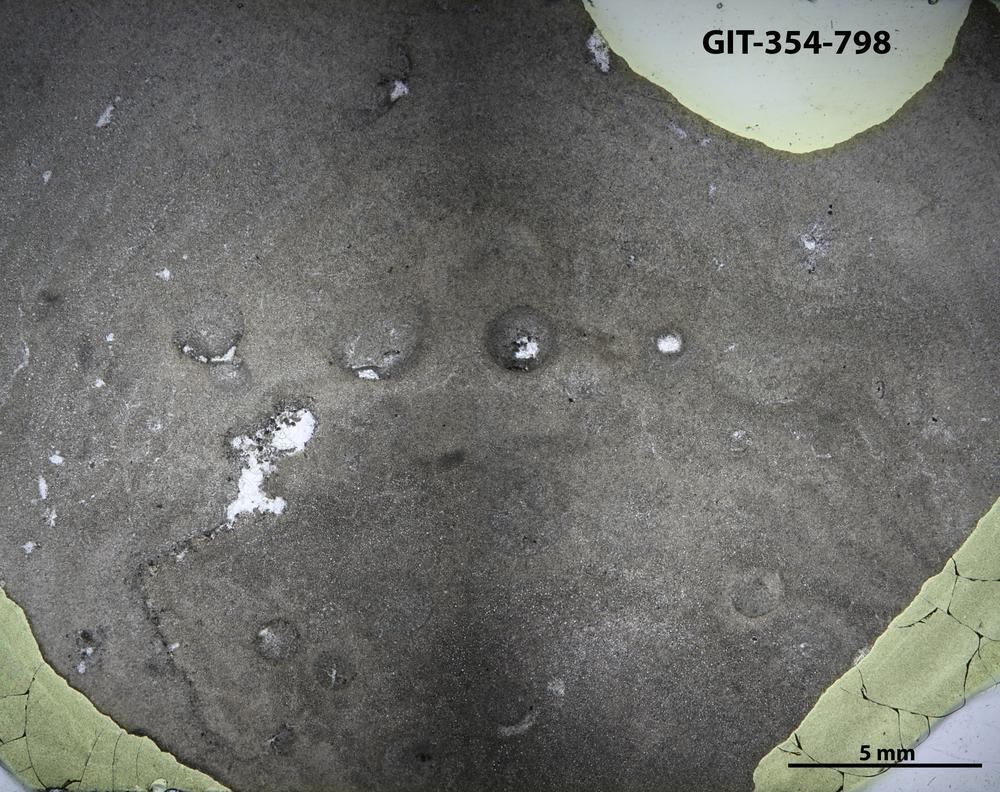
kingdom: Animalia
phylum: Porifera
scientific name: Porifera
